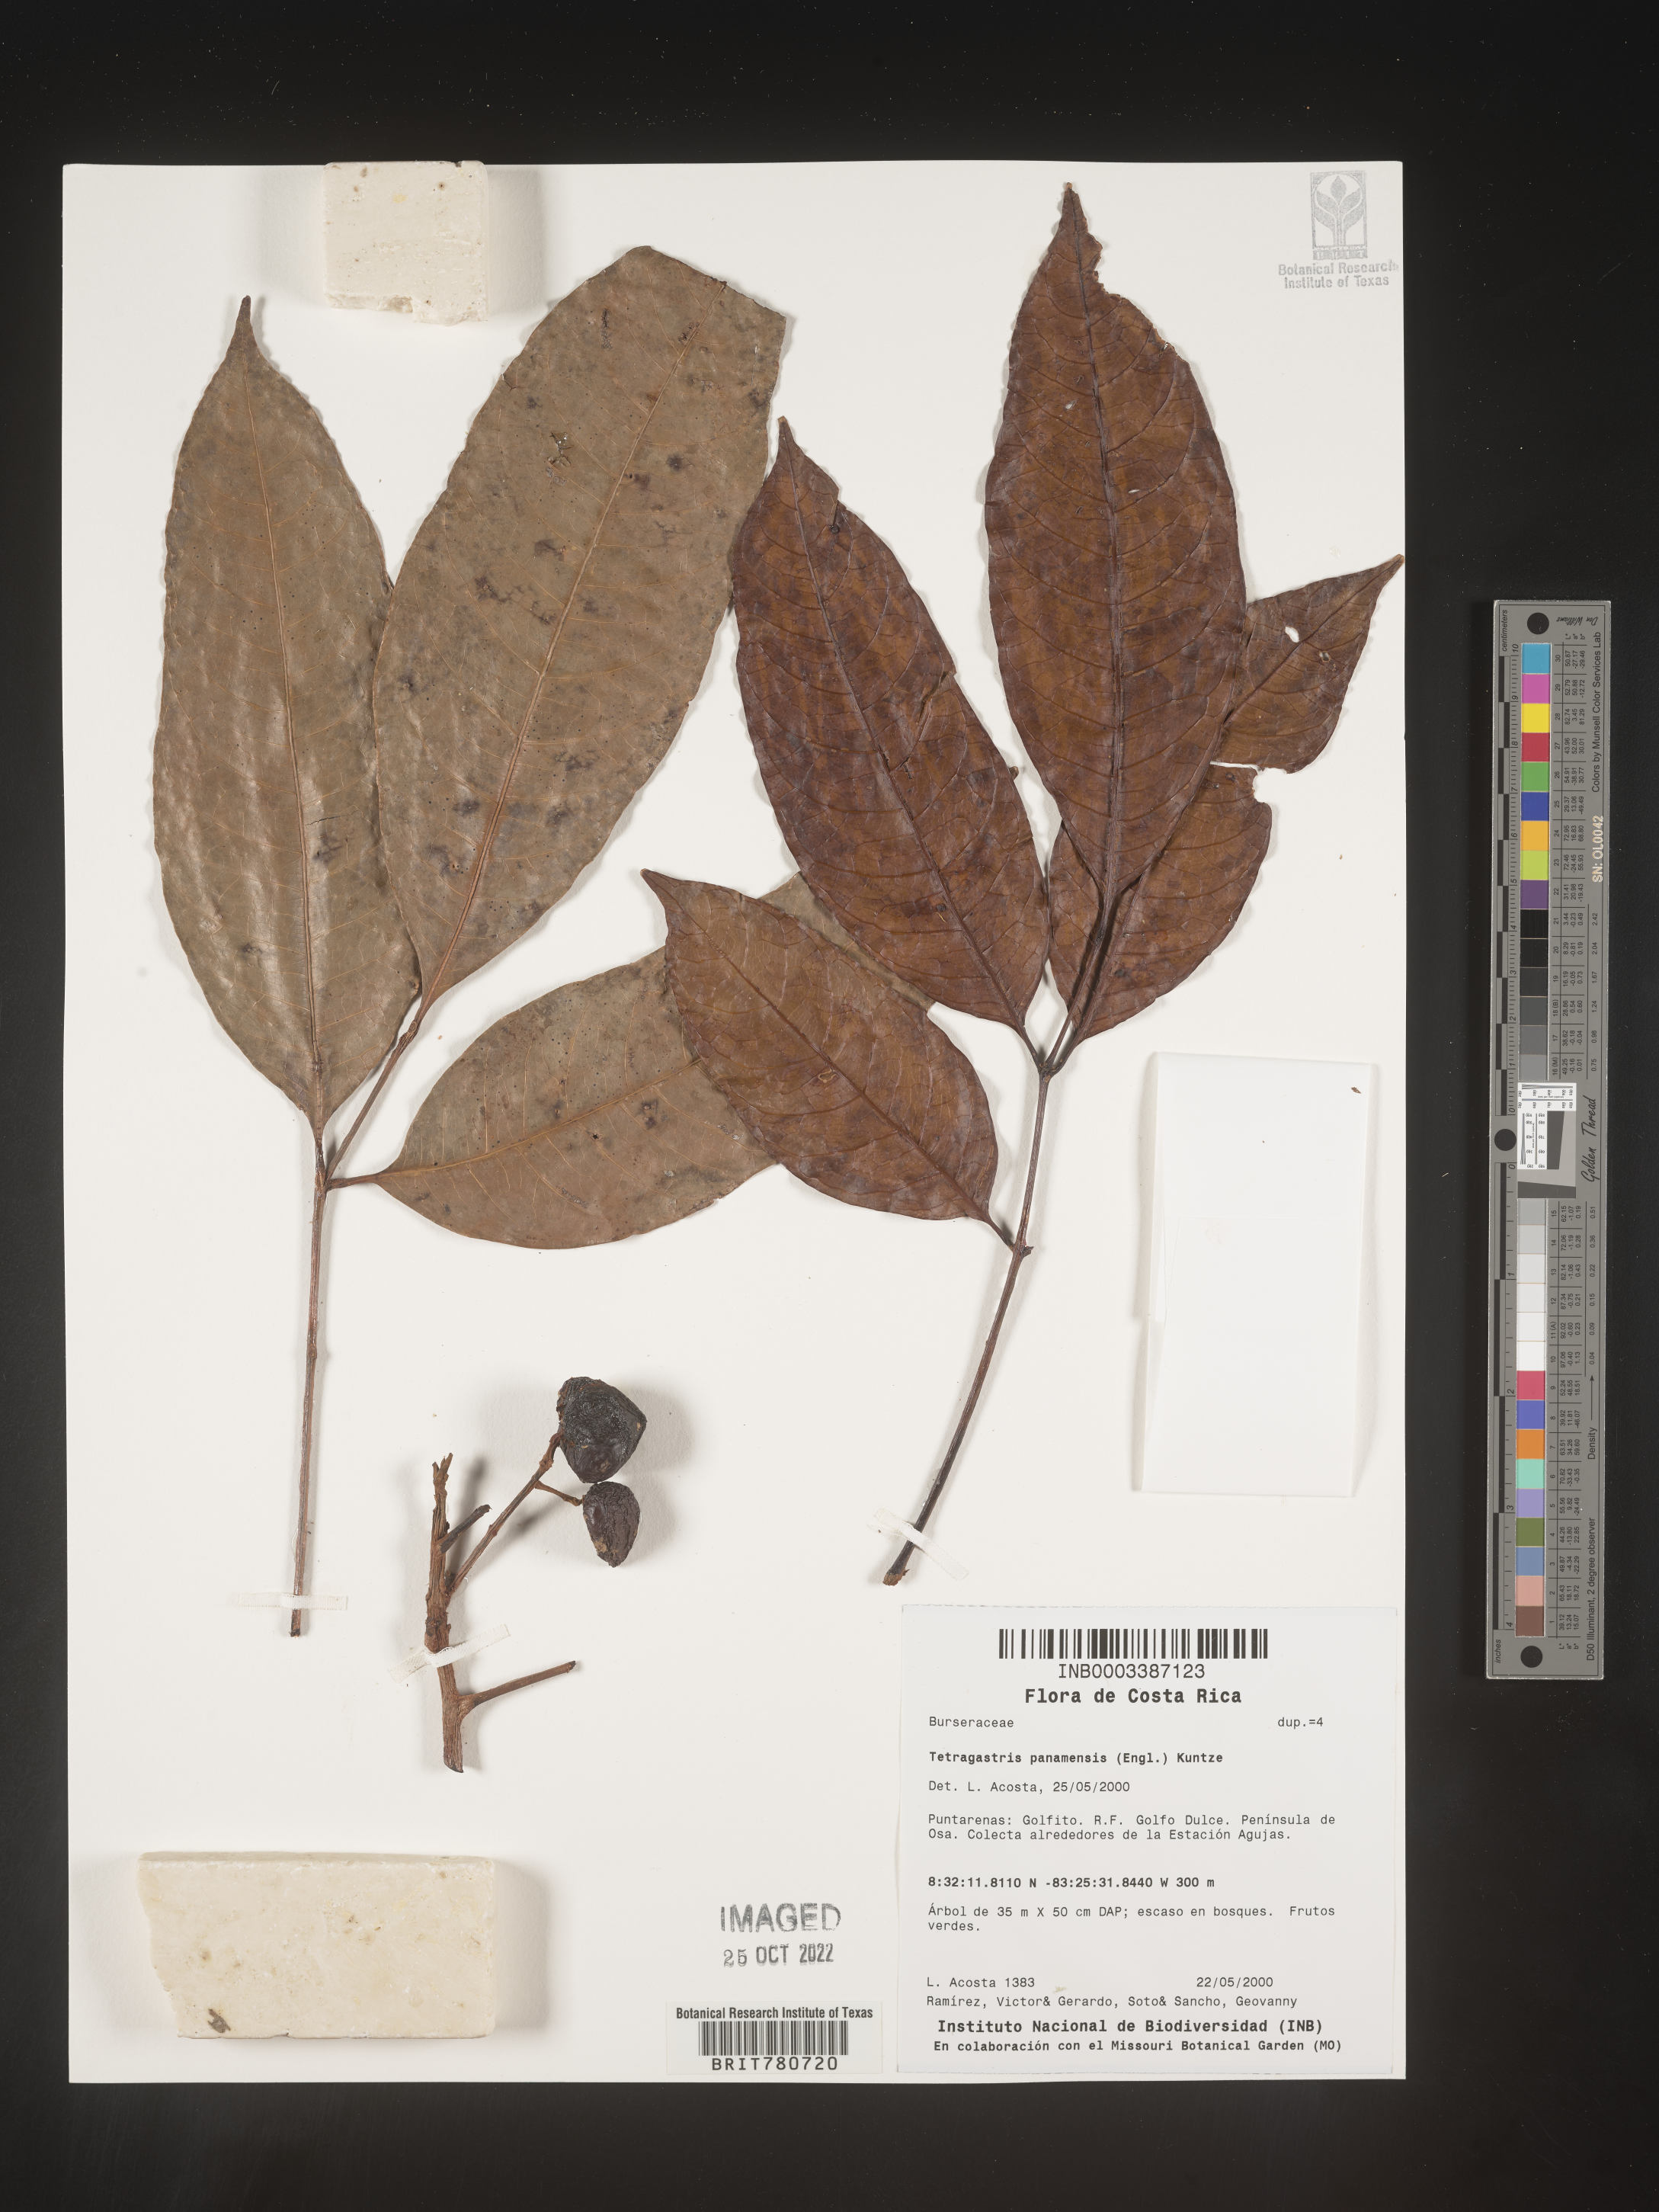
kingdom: Plantae
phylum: Tracheophyta
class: Magnoliopsida
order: Sapindales
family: Burseraceae
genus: Tetragastris
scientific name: Tetragastris panamensis
